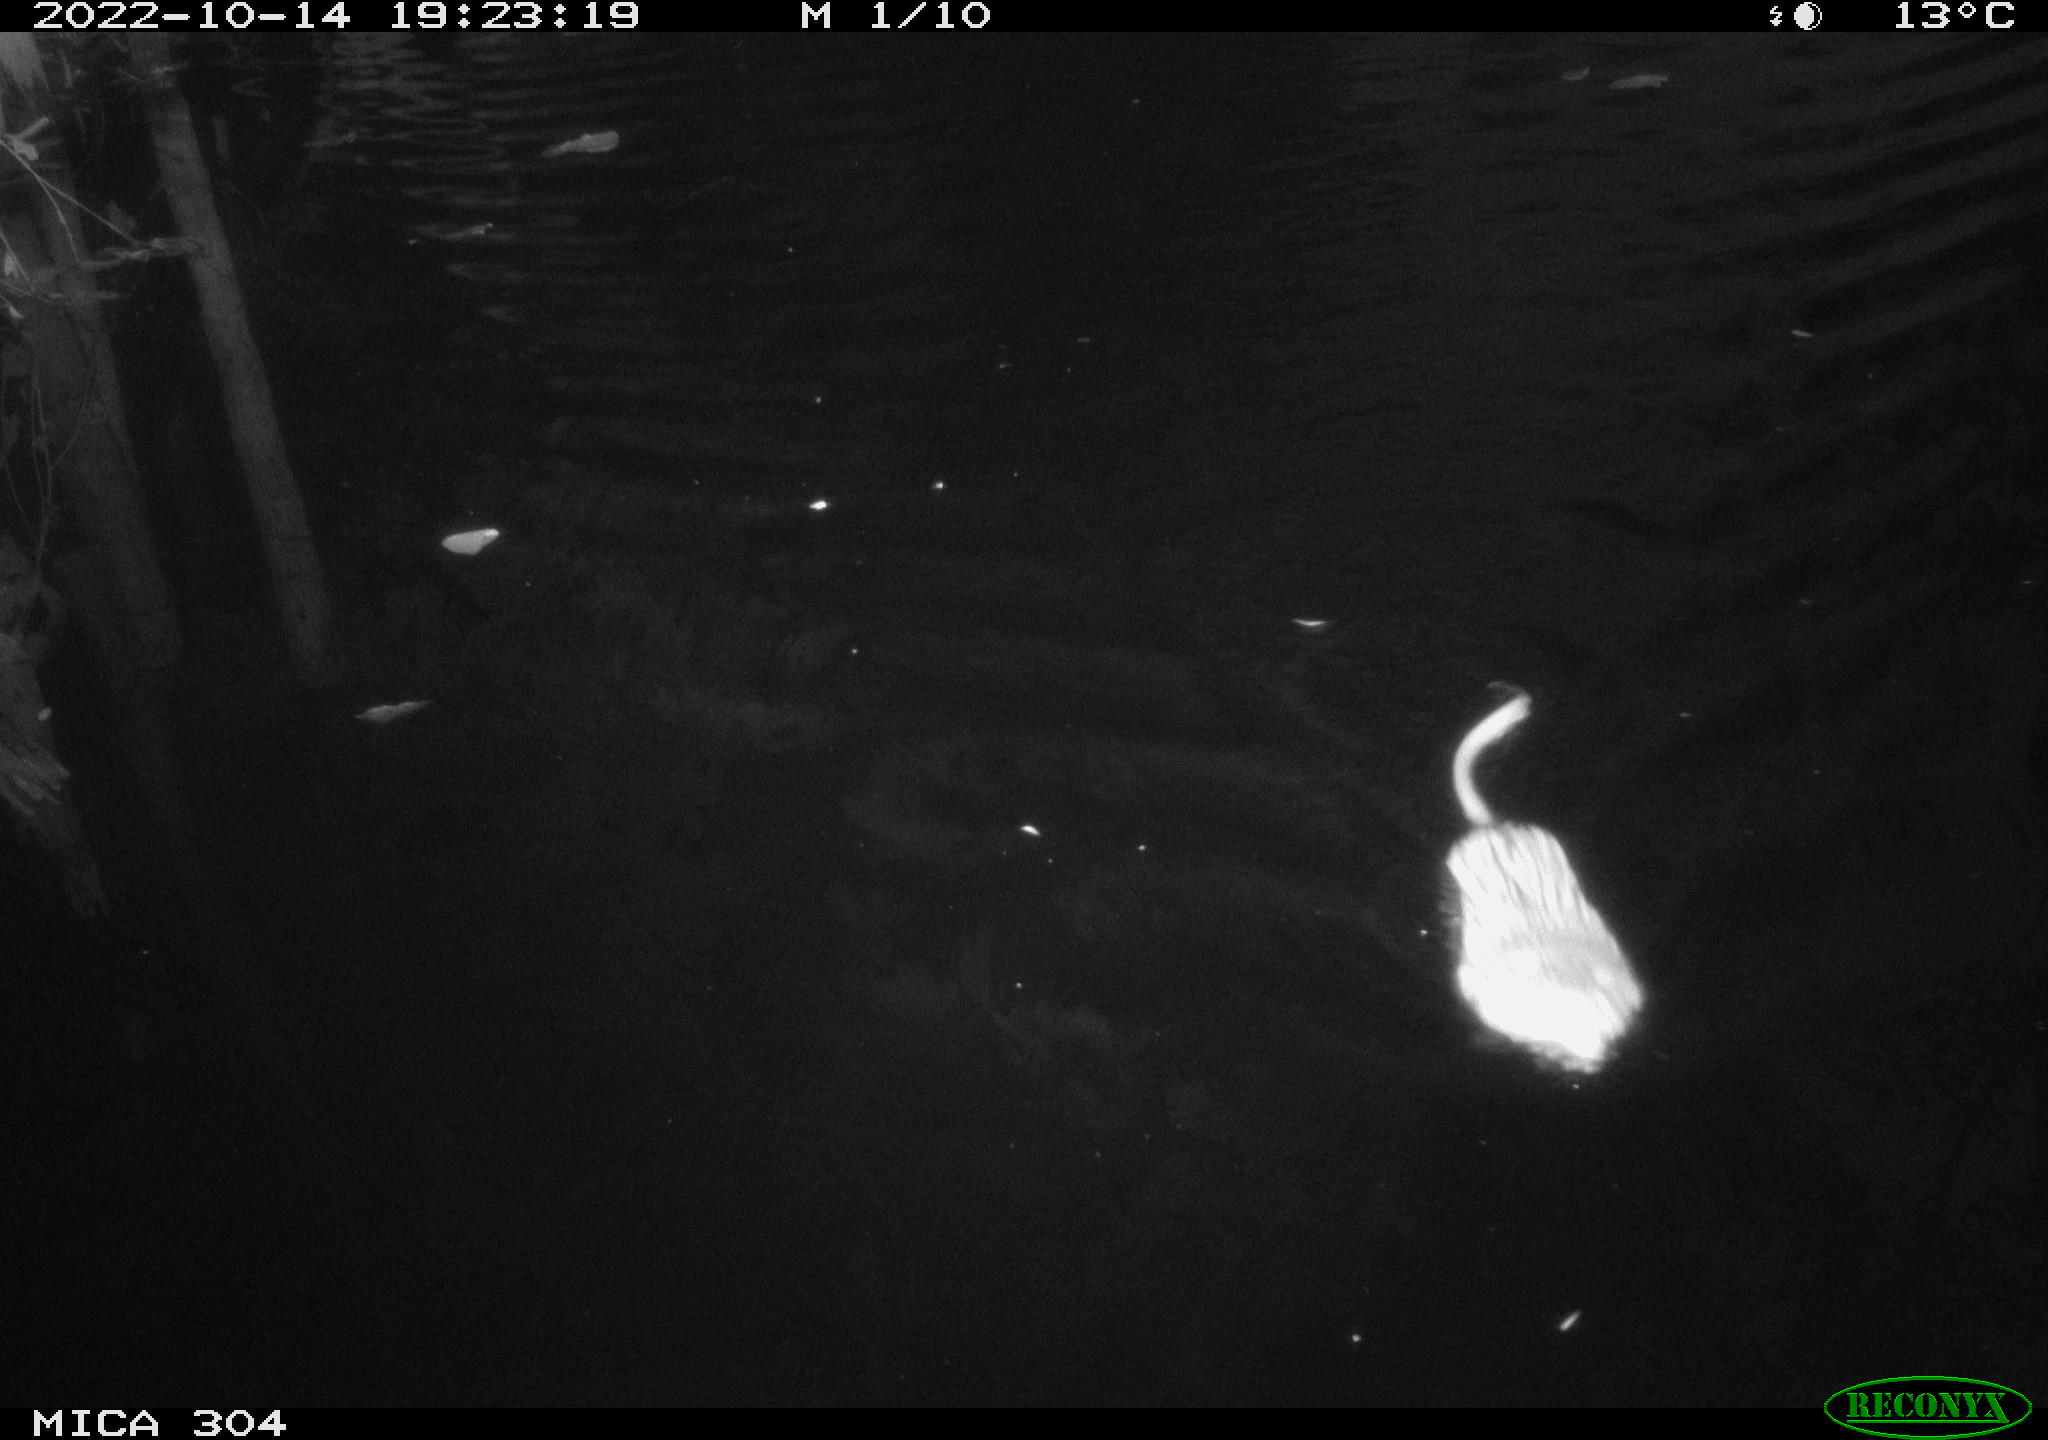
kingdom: Animalia
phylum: Chordata
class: Mammalia
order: Rodentia
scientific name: Rodentia
